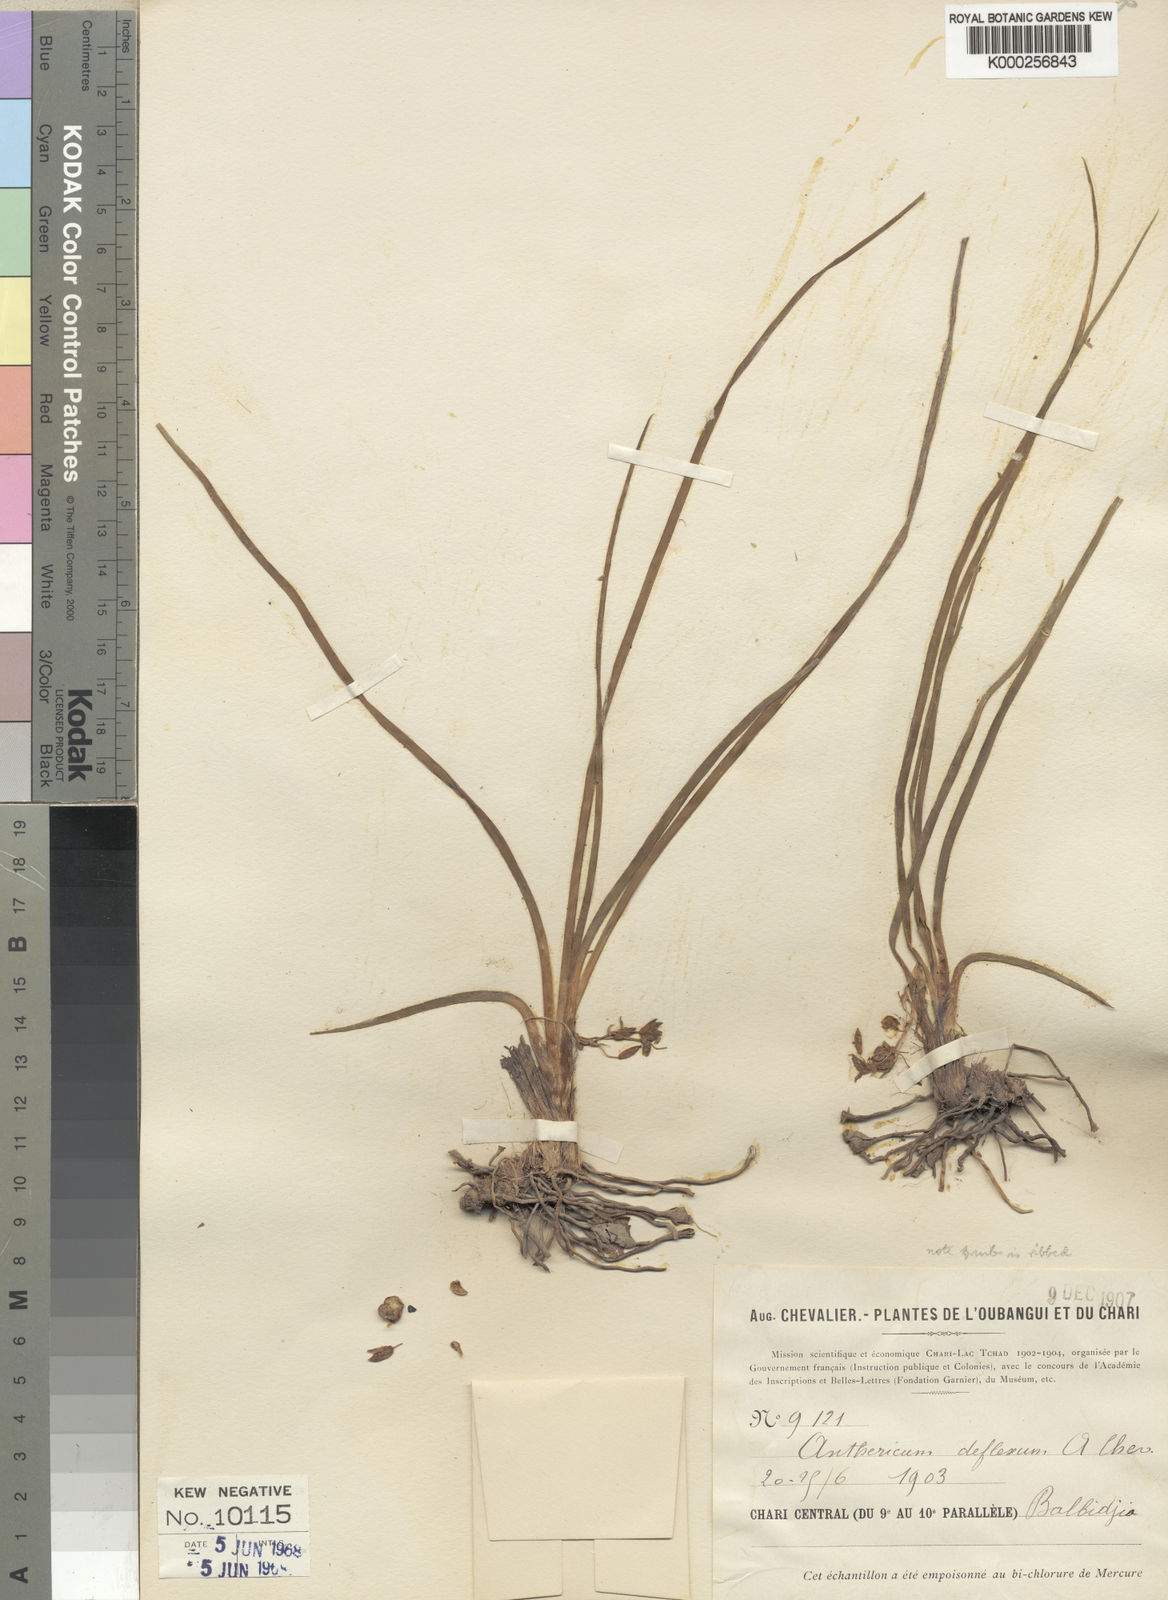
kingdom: Plantae
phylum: Tracheophyta
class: Liliopsida
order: Asparagales
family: Asparagaceae
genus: Chlorophytum
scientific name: Chlorophytum tordense
